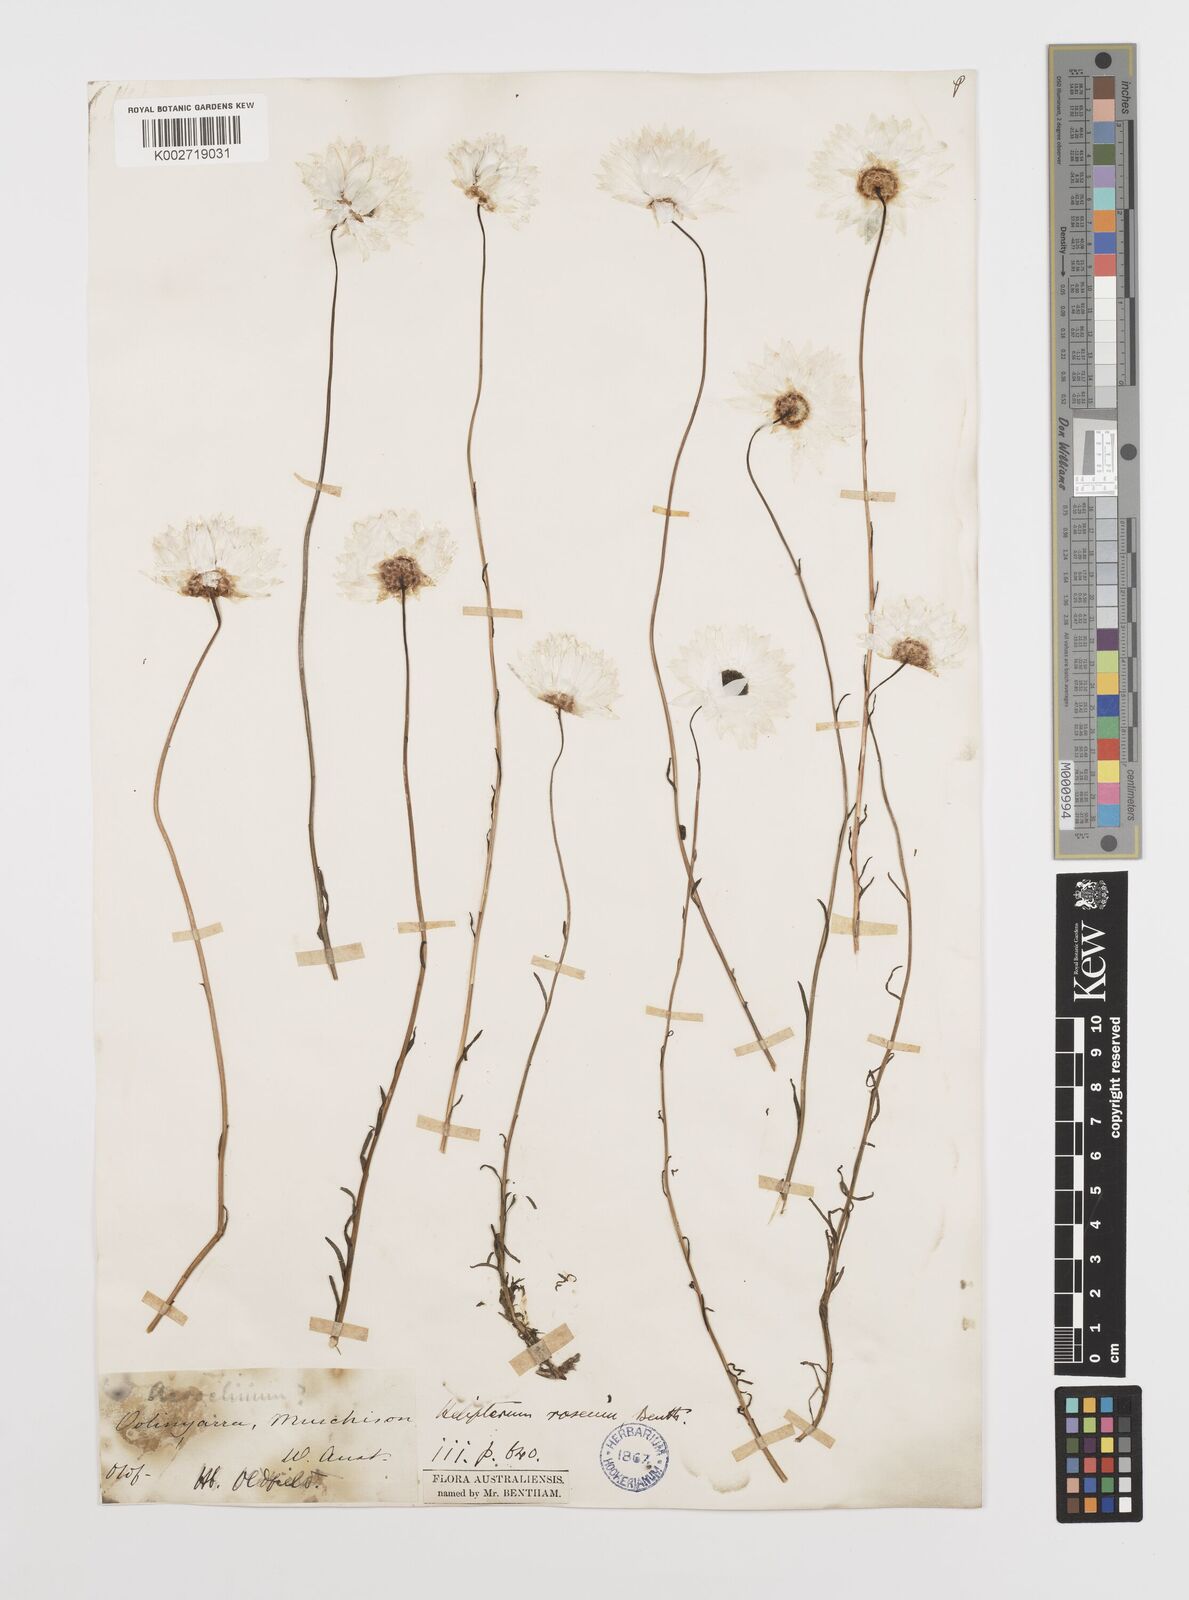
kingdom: Plantae
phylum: Tracheophyta
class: Magnoliopsida
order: Asterales
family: Asteraceae
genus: Rhodanthe
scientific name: Rhodanthe chlorocephala
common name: Rosy sunray
